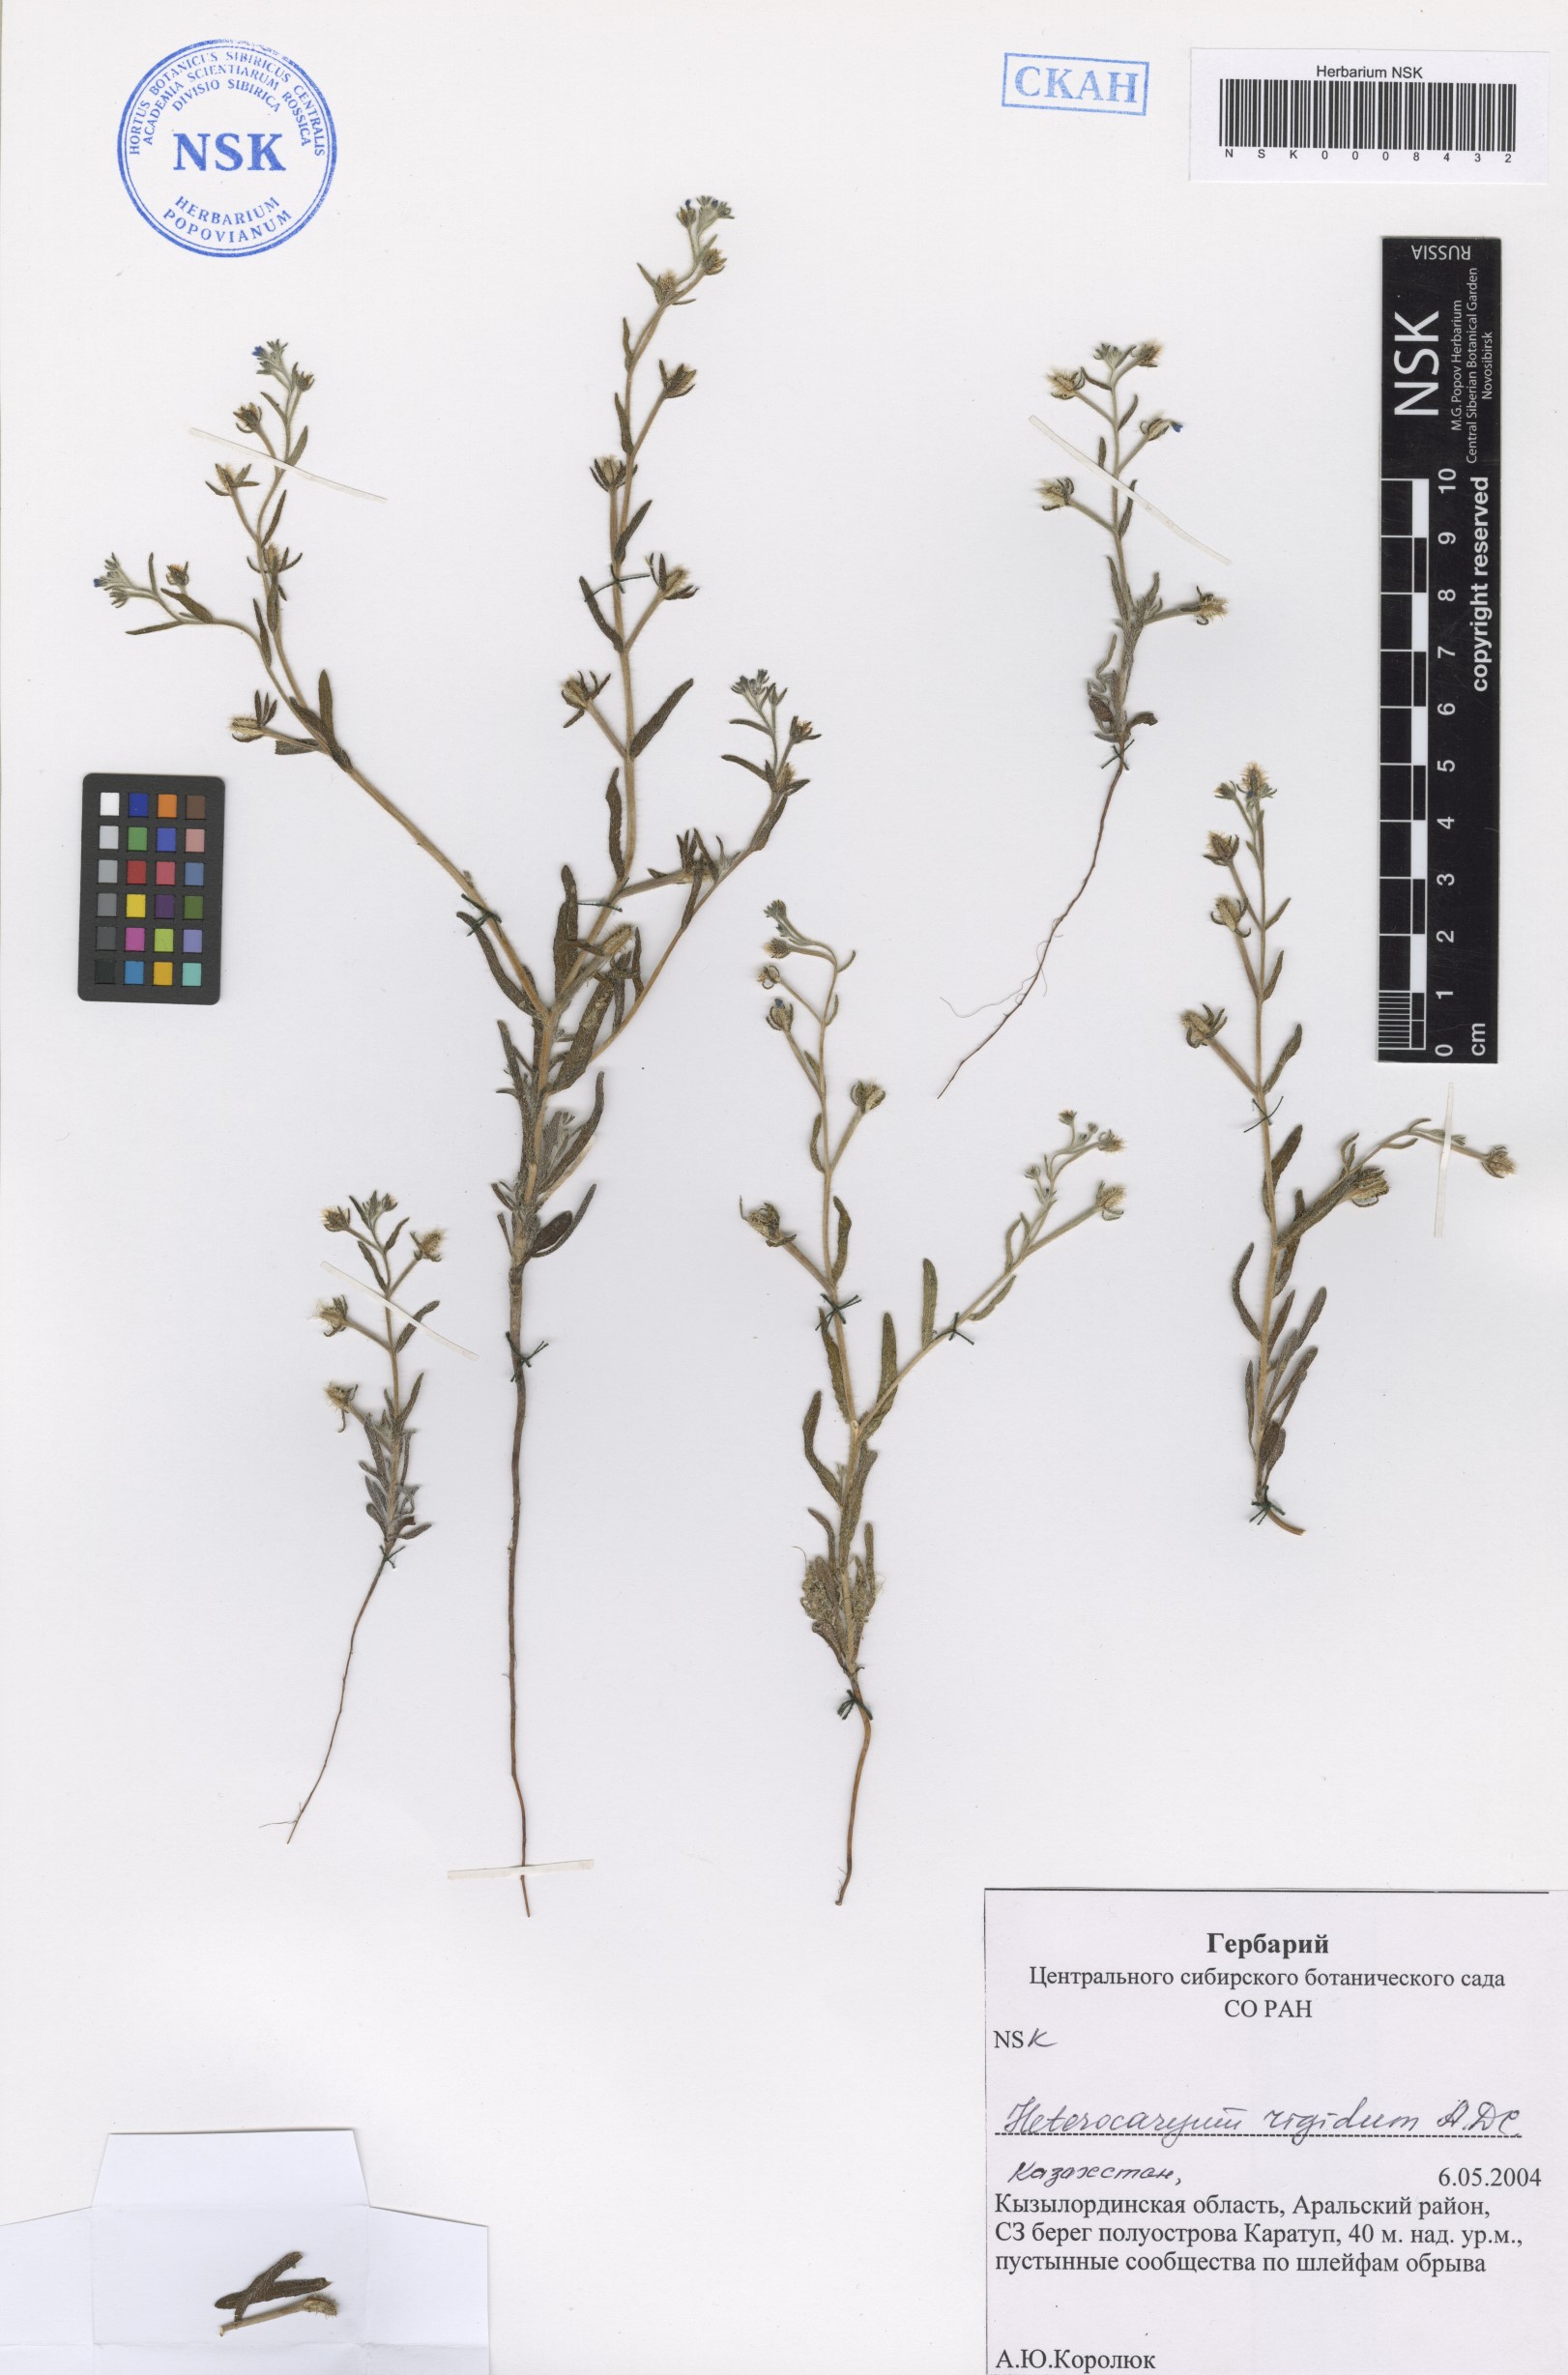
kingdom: Plantae
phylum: Tracheophyta
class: Magnoliopsida
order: Boraginales
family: Boraginaceae
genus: Pseudoheterocaryum
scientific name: Pseudoheterocaryum rigidum
